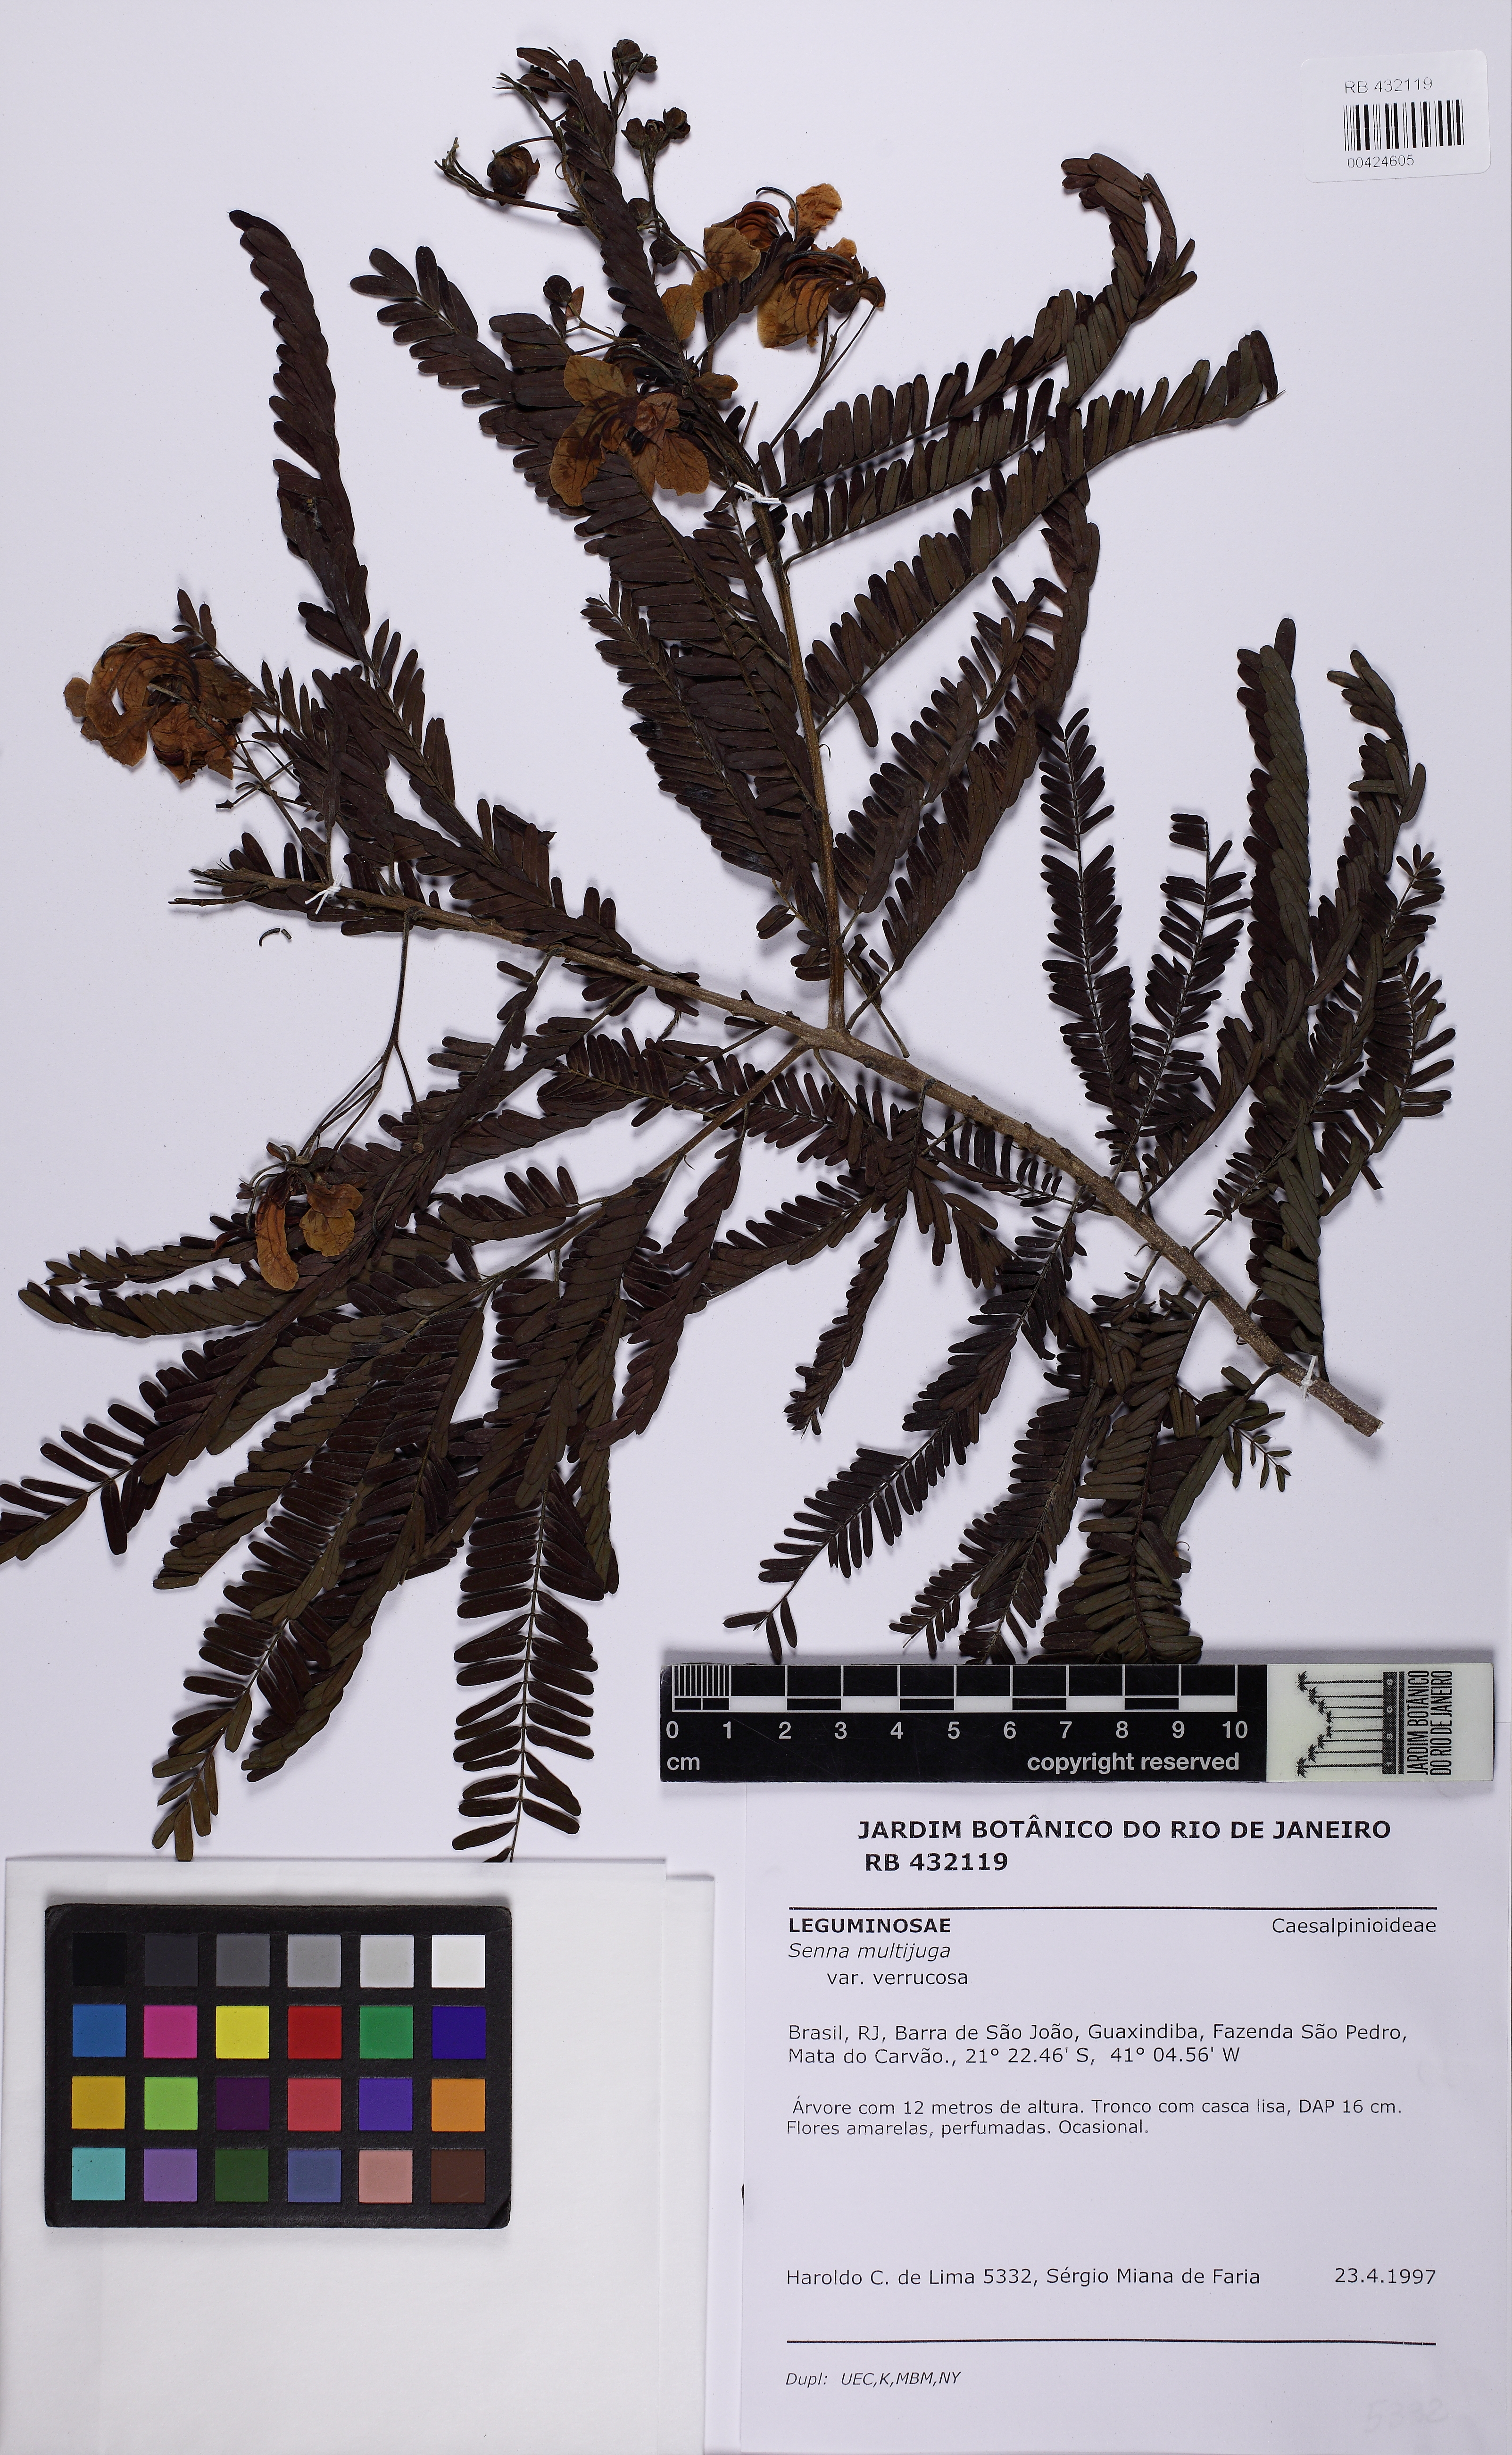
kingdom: Plantae
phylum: Tracheophyta
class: Magnoliopsida
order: Fabales
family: Fabaceae
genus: Senna
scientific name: Senna multijuga
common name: False sicklepod
